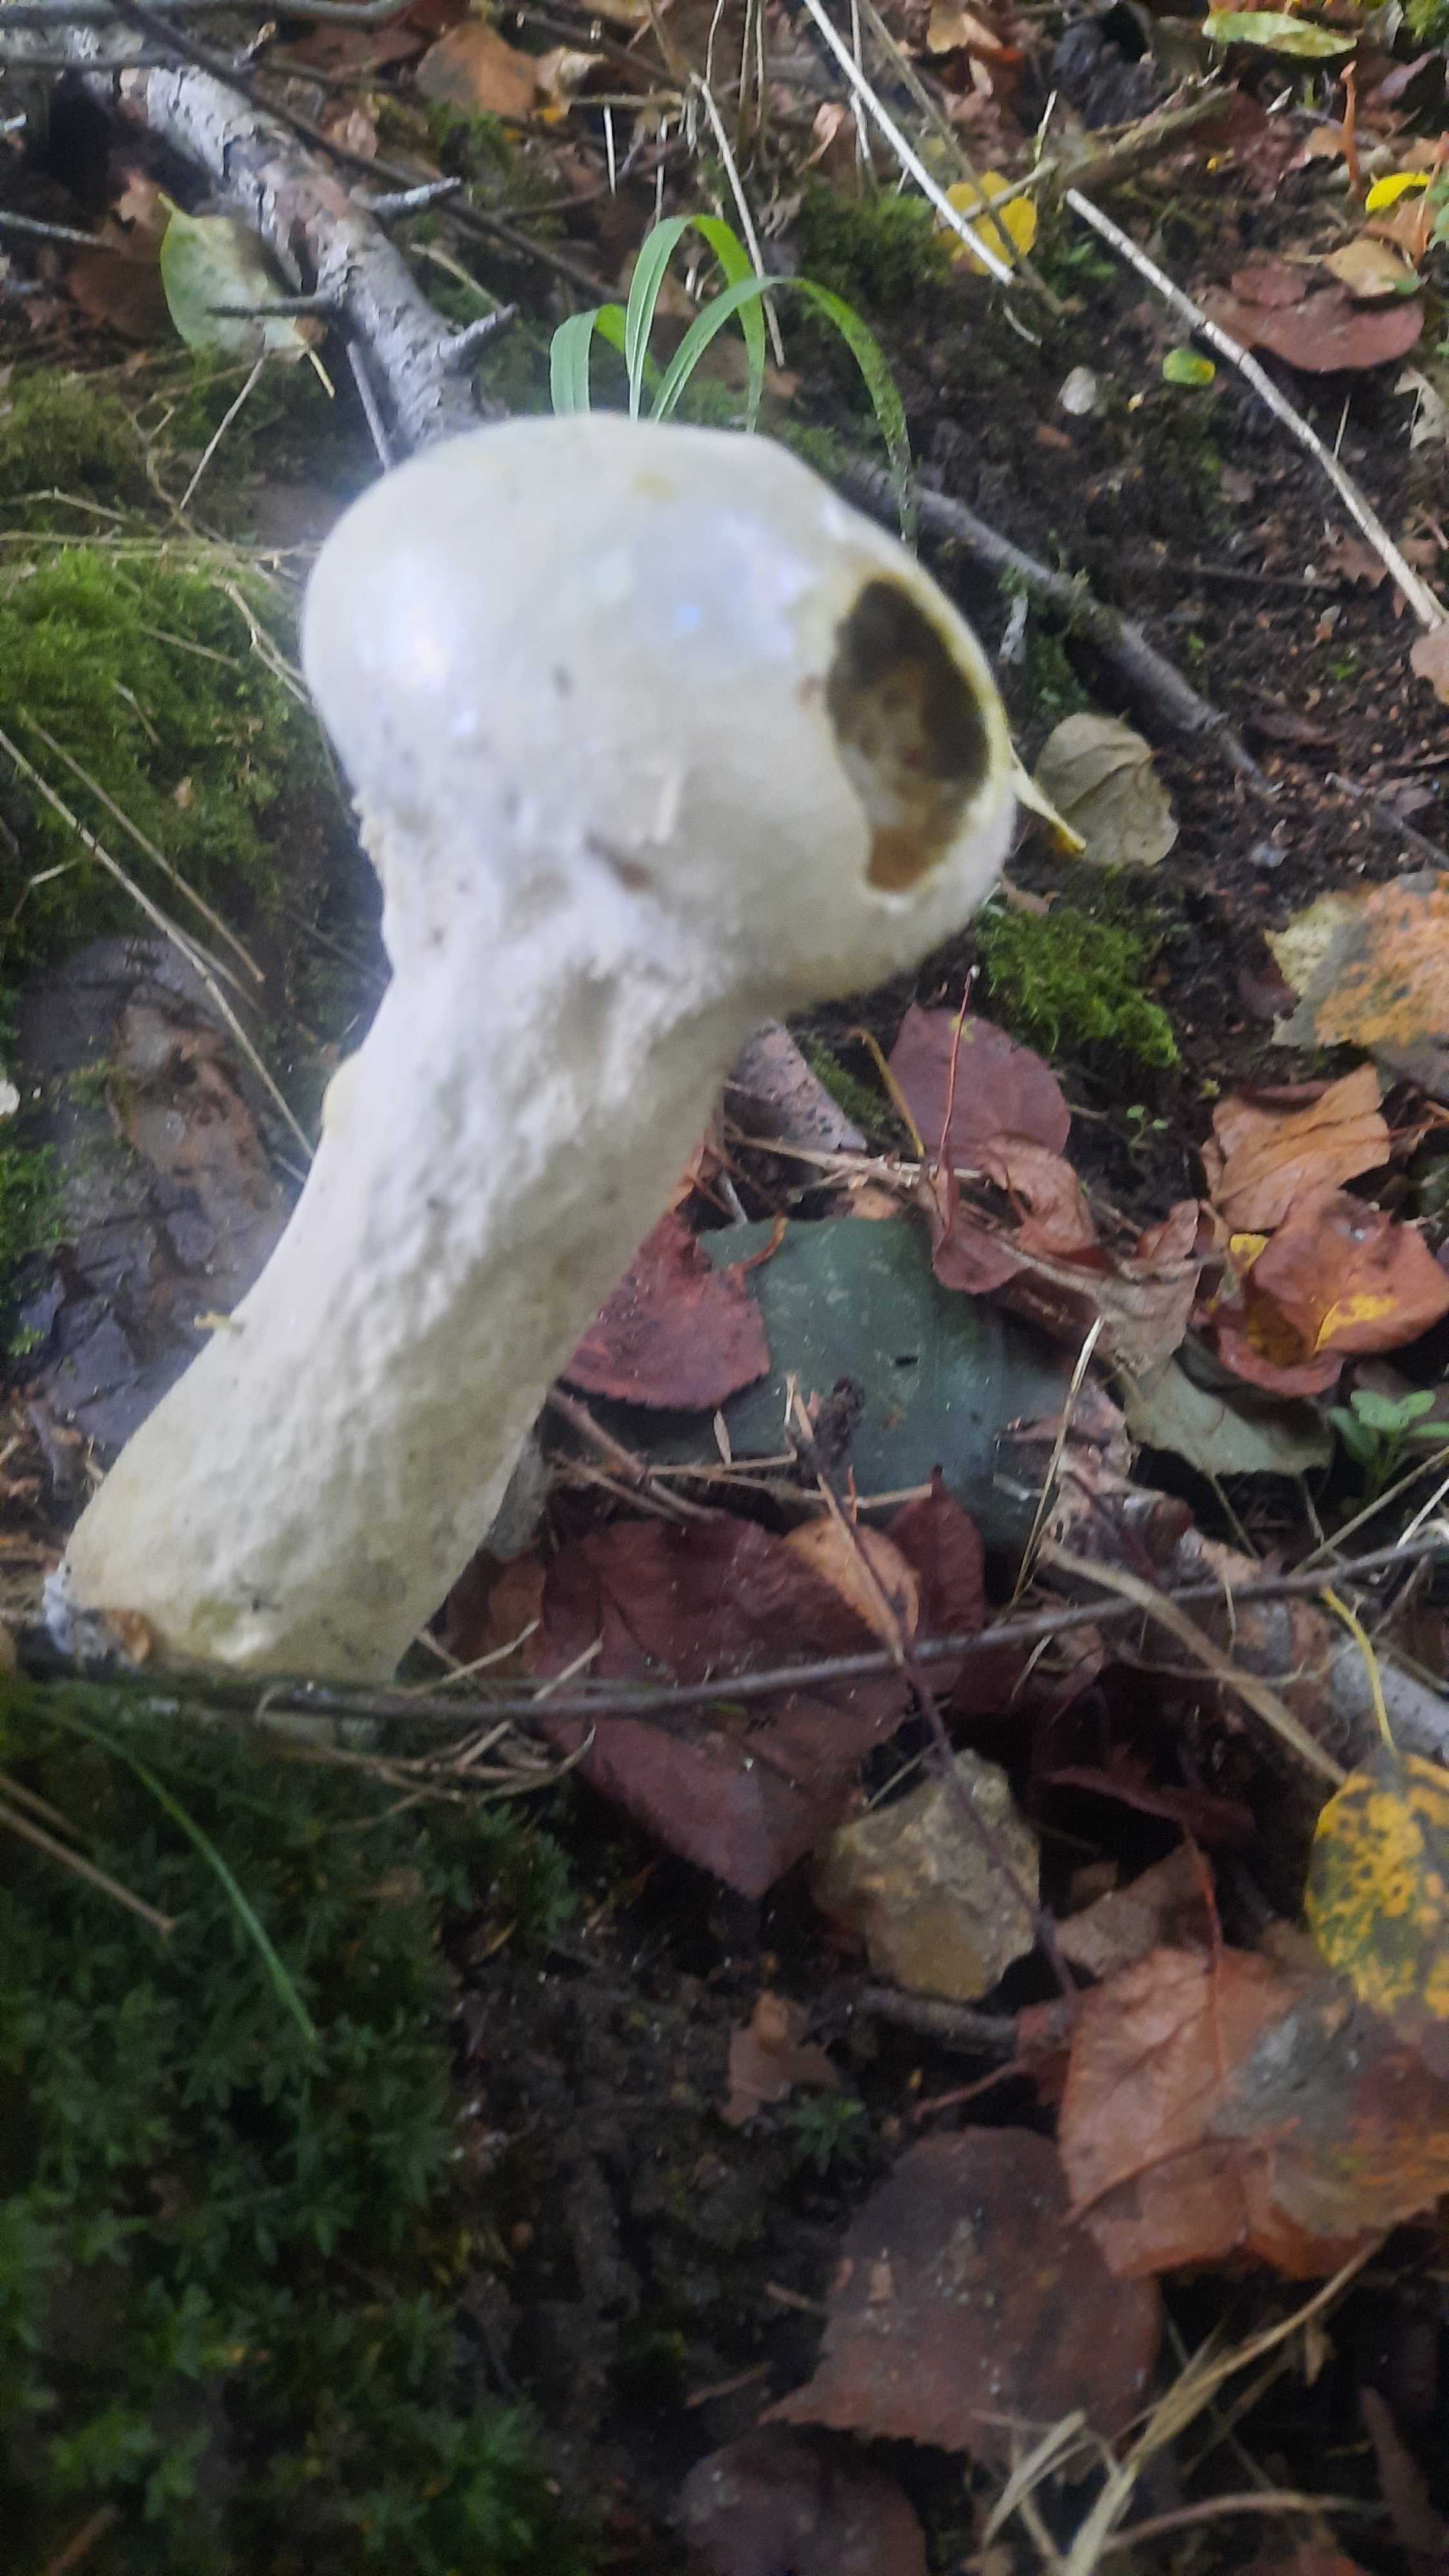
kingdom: Fungi
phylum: Basidiomycota
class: Agaricomycetes
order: Agaricales
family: Lycoperdaceae
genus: Lycoperdon
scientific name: Lycoperdon excipuliforme
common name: højstokket støvbold
